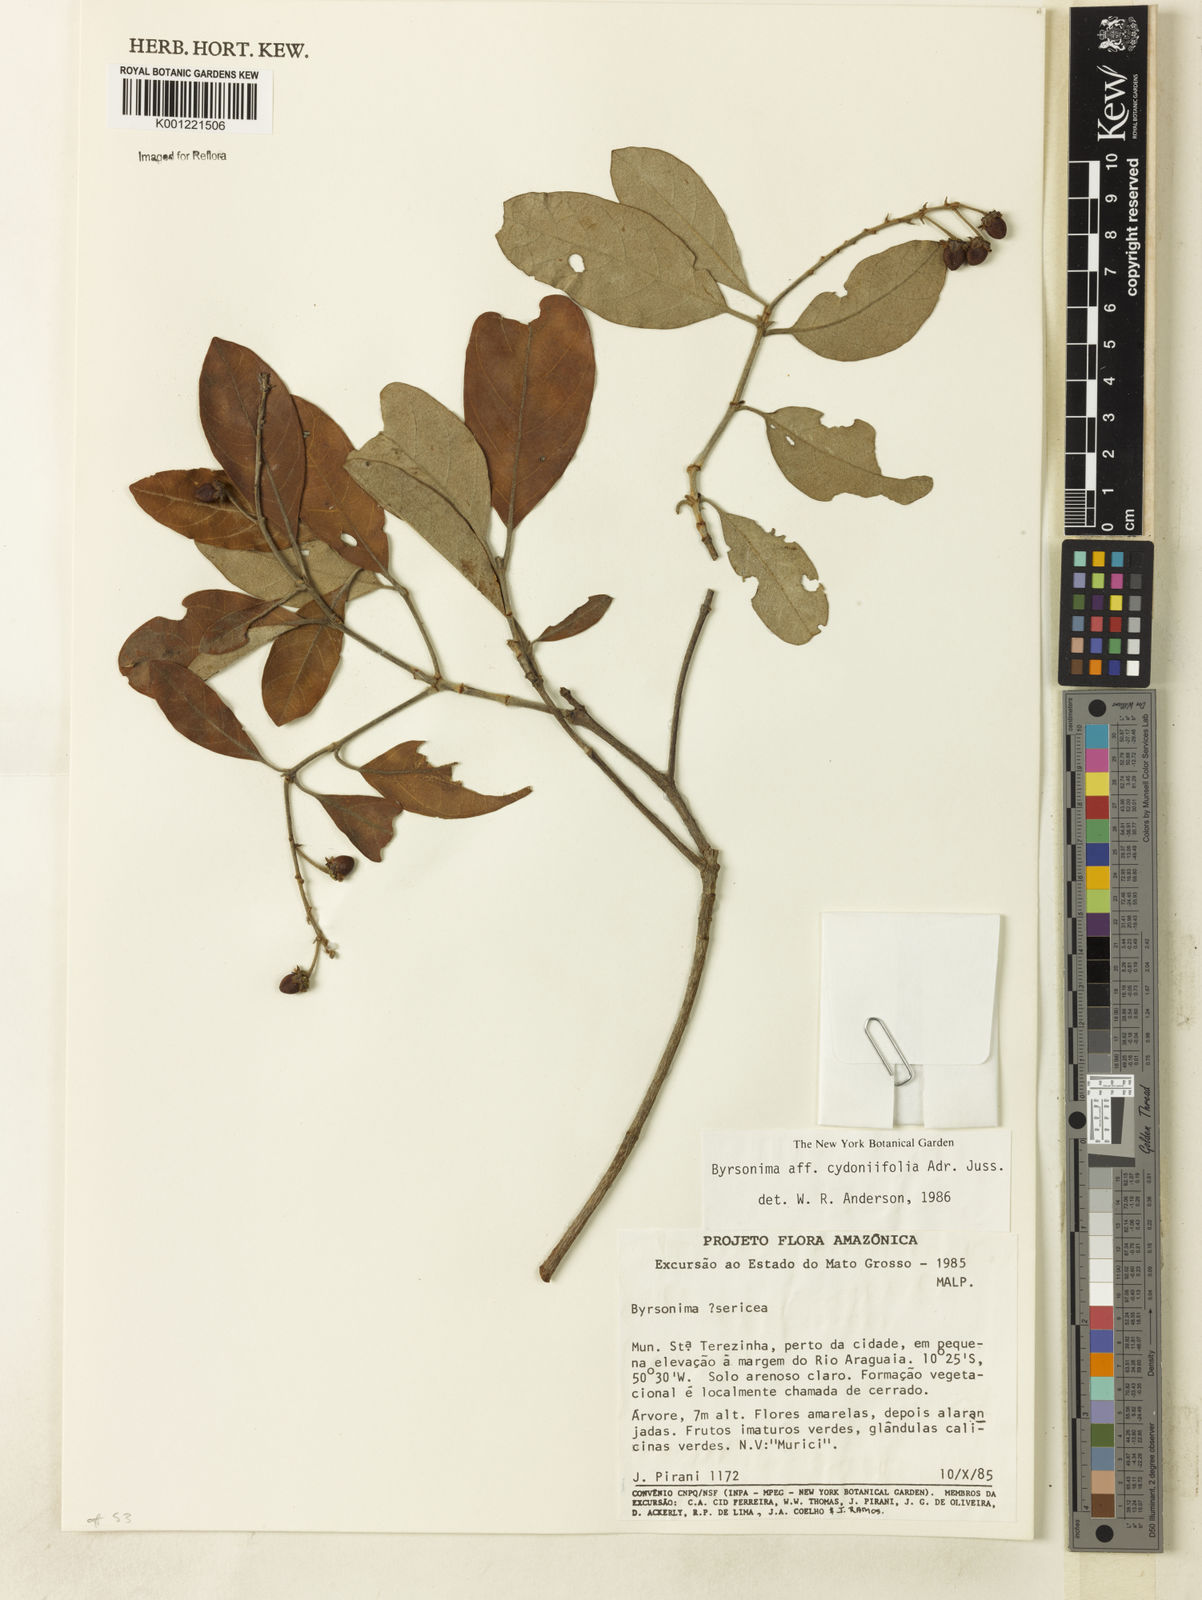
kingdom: Plantae
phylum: Tracheophyta
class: Magnoliopsida
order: Malpighiales
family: Malpighiaceae
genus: Byrsonima
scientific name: Byrsonima cydoniifolia
